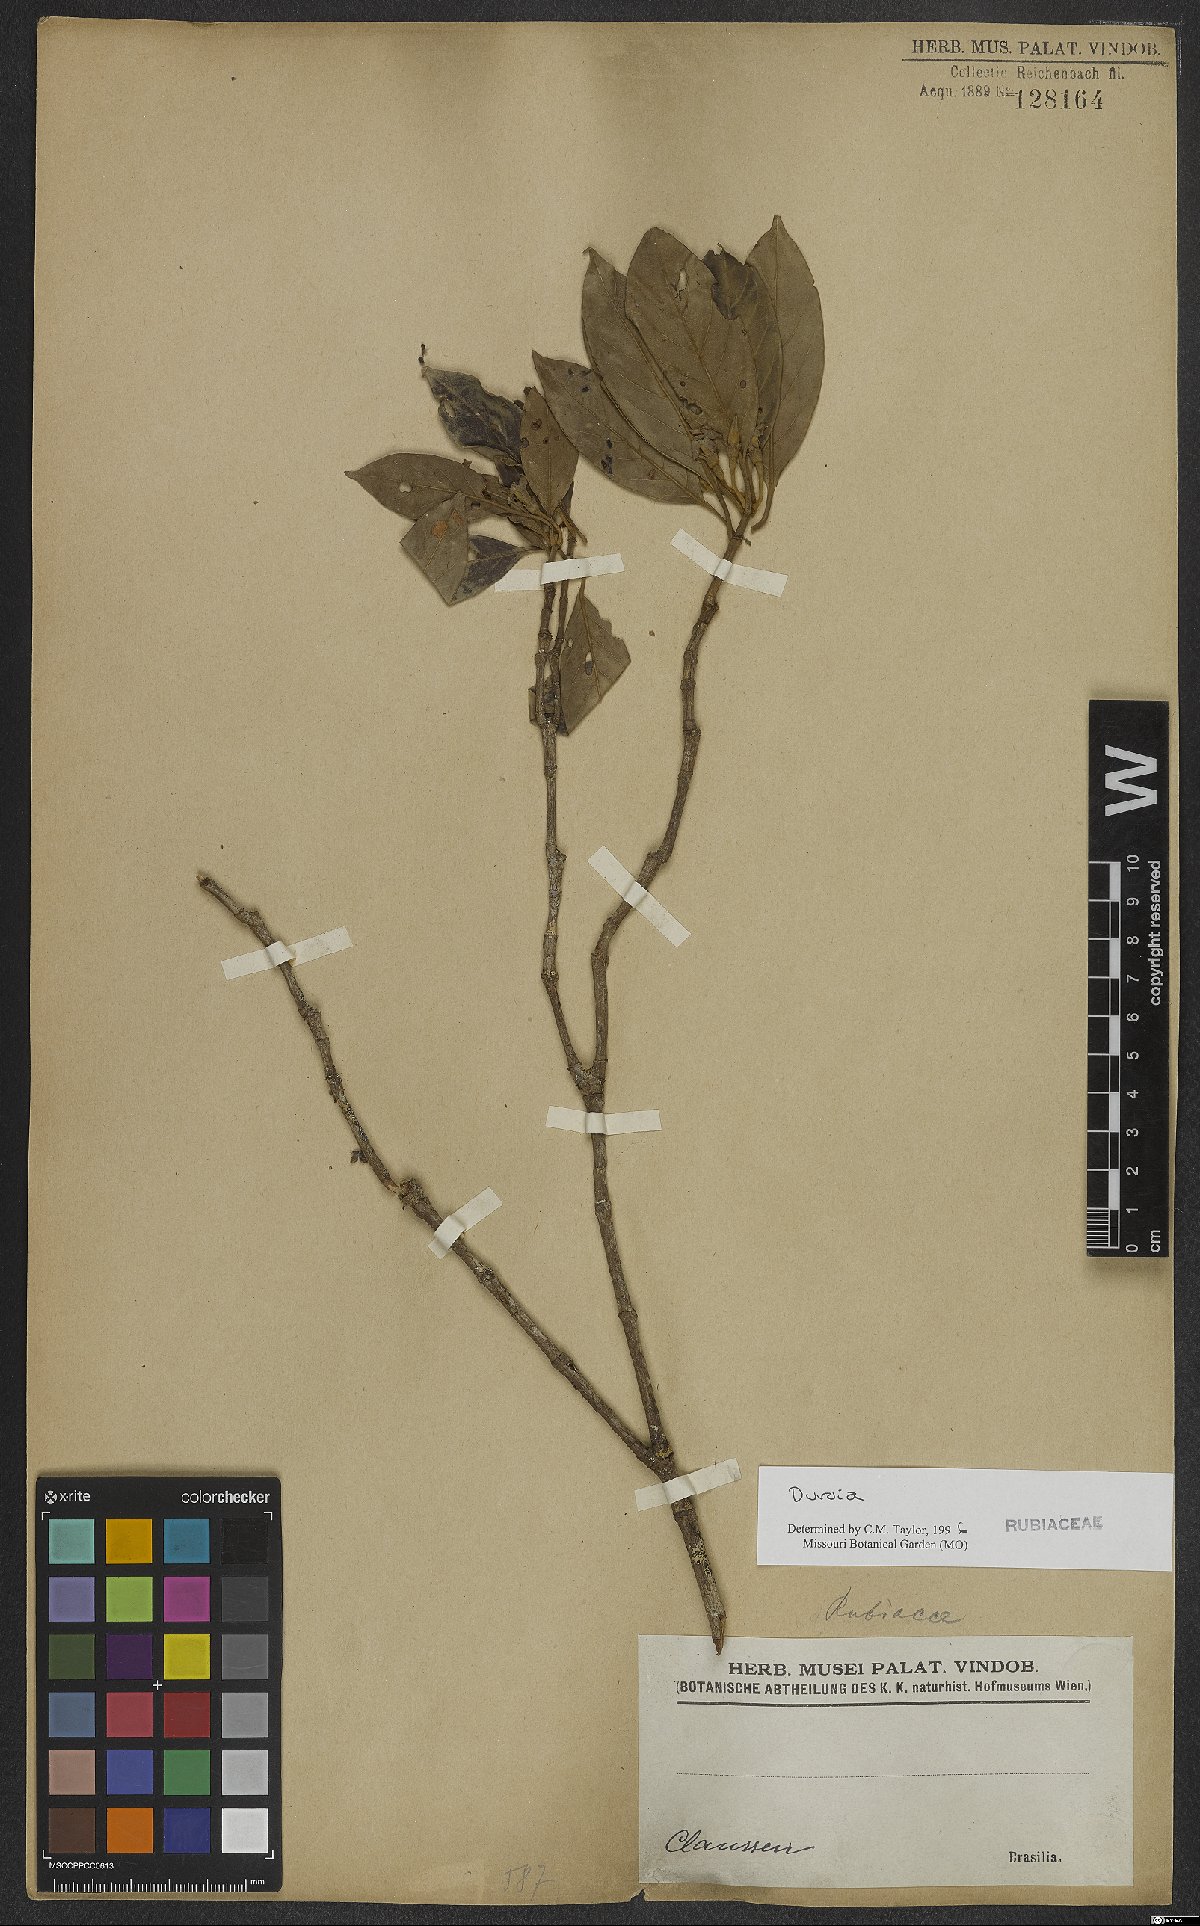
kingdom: Plantae
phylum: Tracheophyta
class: Magnoliopsida
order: Gentianales
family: Rubiaceae
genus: Duroia
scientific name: Duroia velutina
